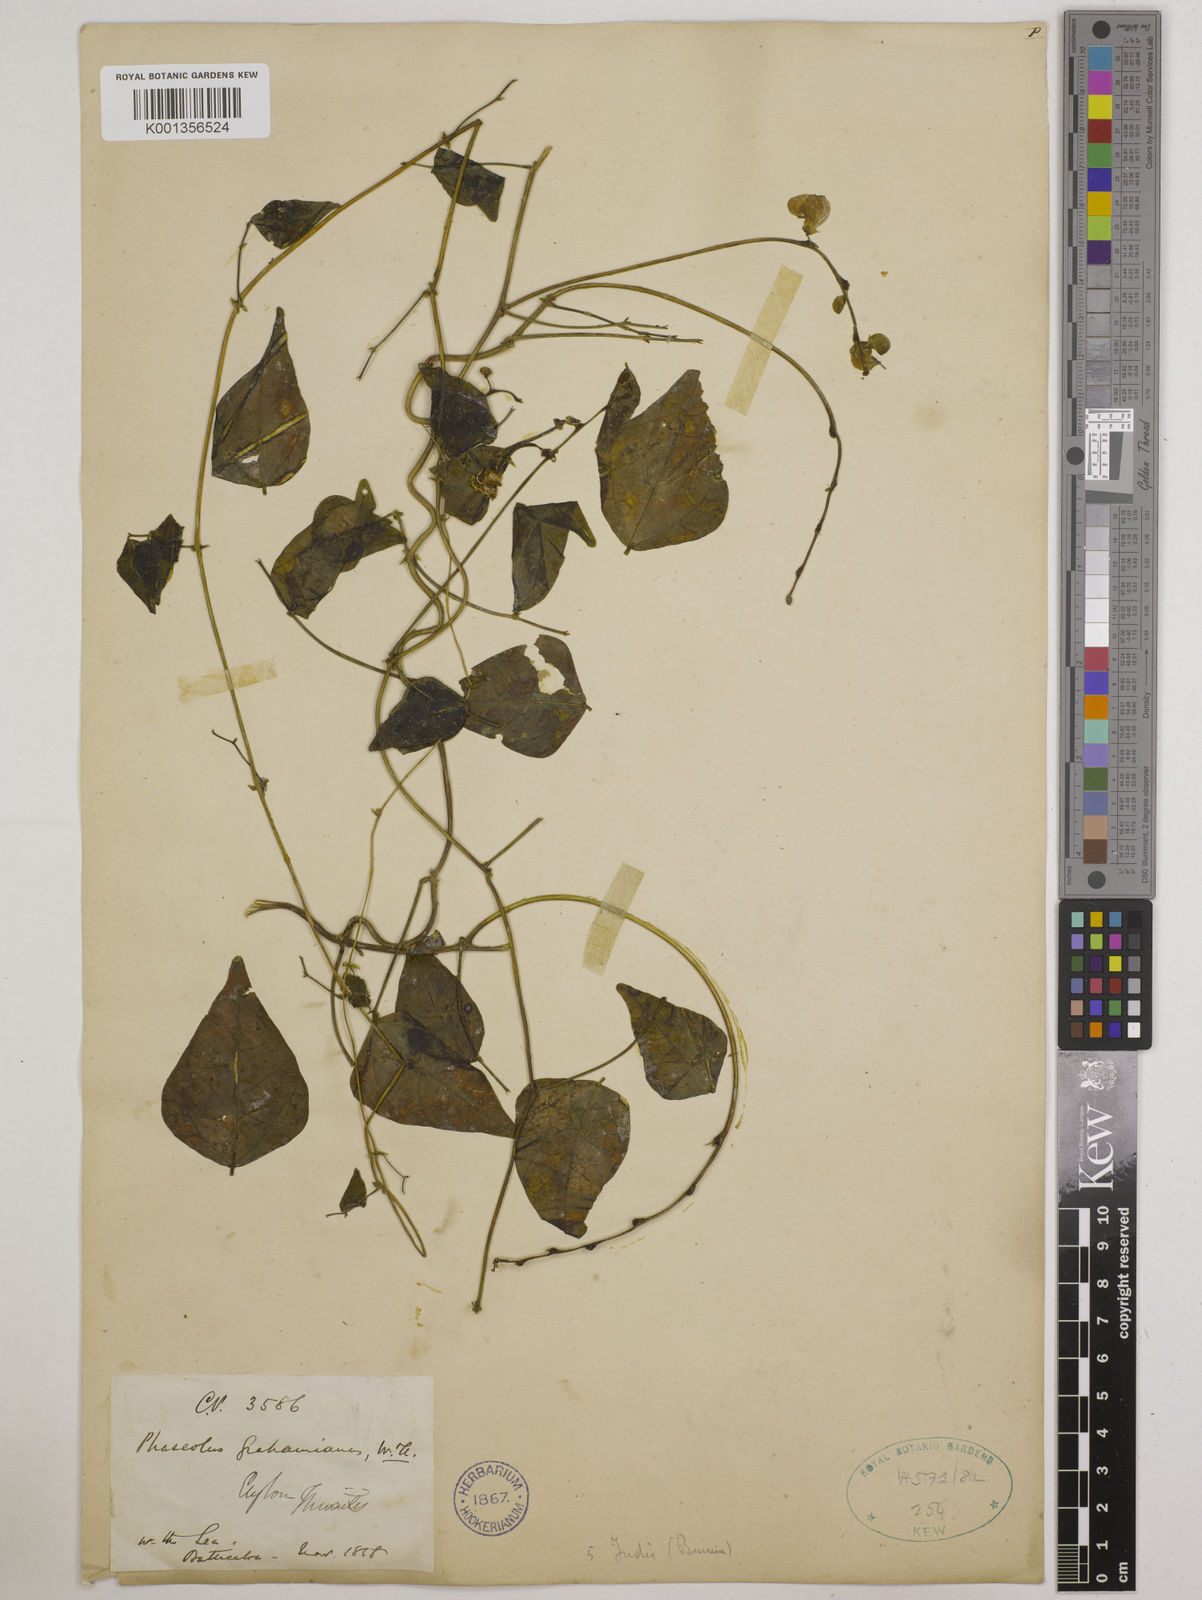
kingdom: Plantae
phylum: Tracheophyta
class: Magnoliopsida
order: Fabales
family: Fabaceae
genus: Wajira
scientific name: Wajira grahamiana
